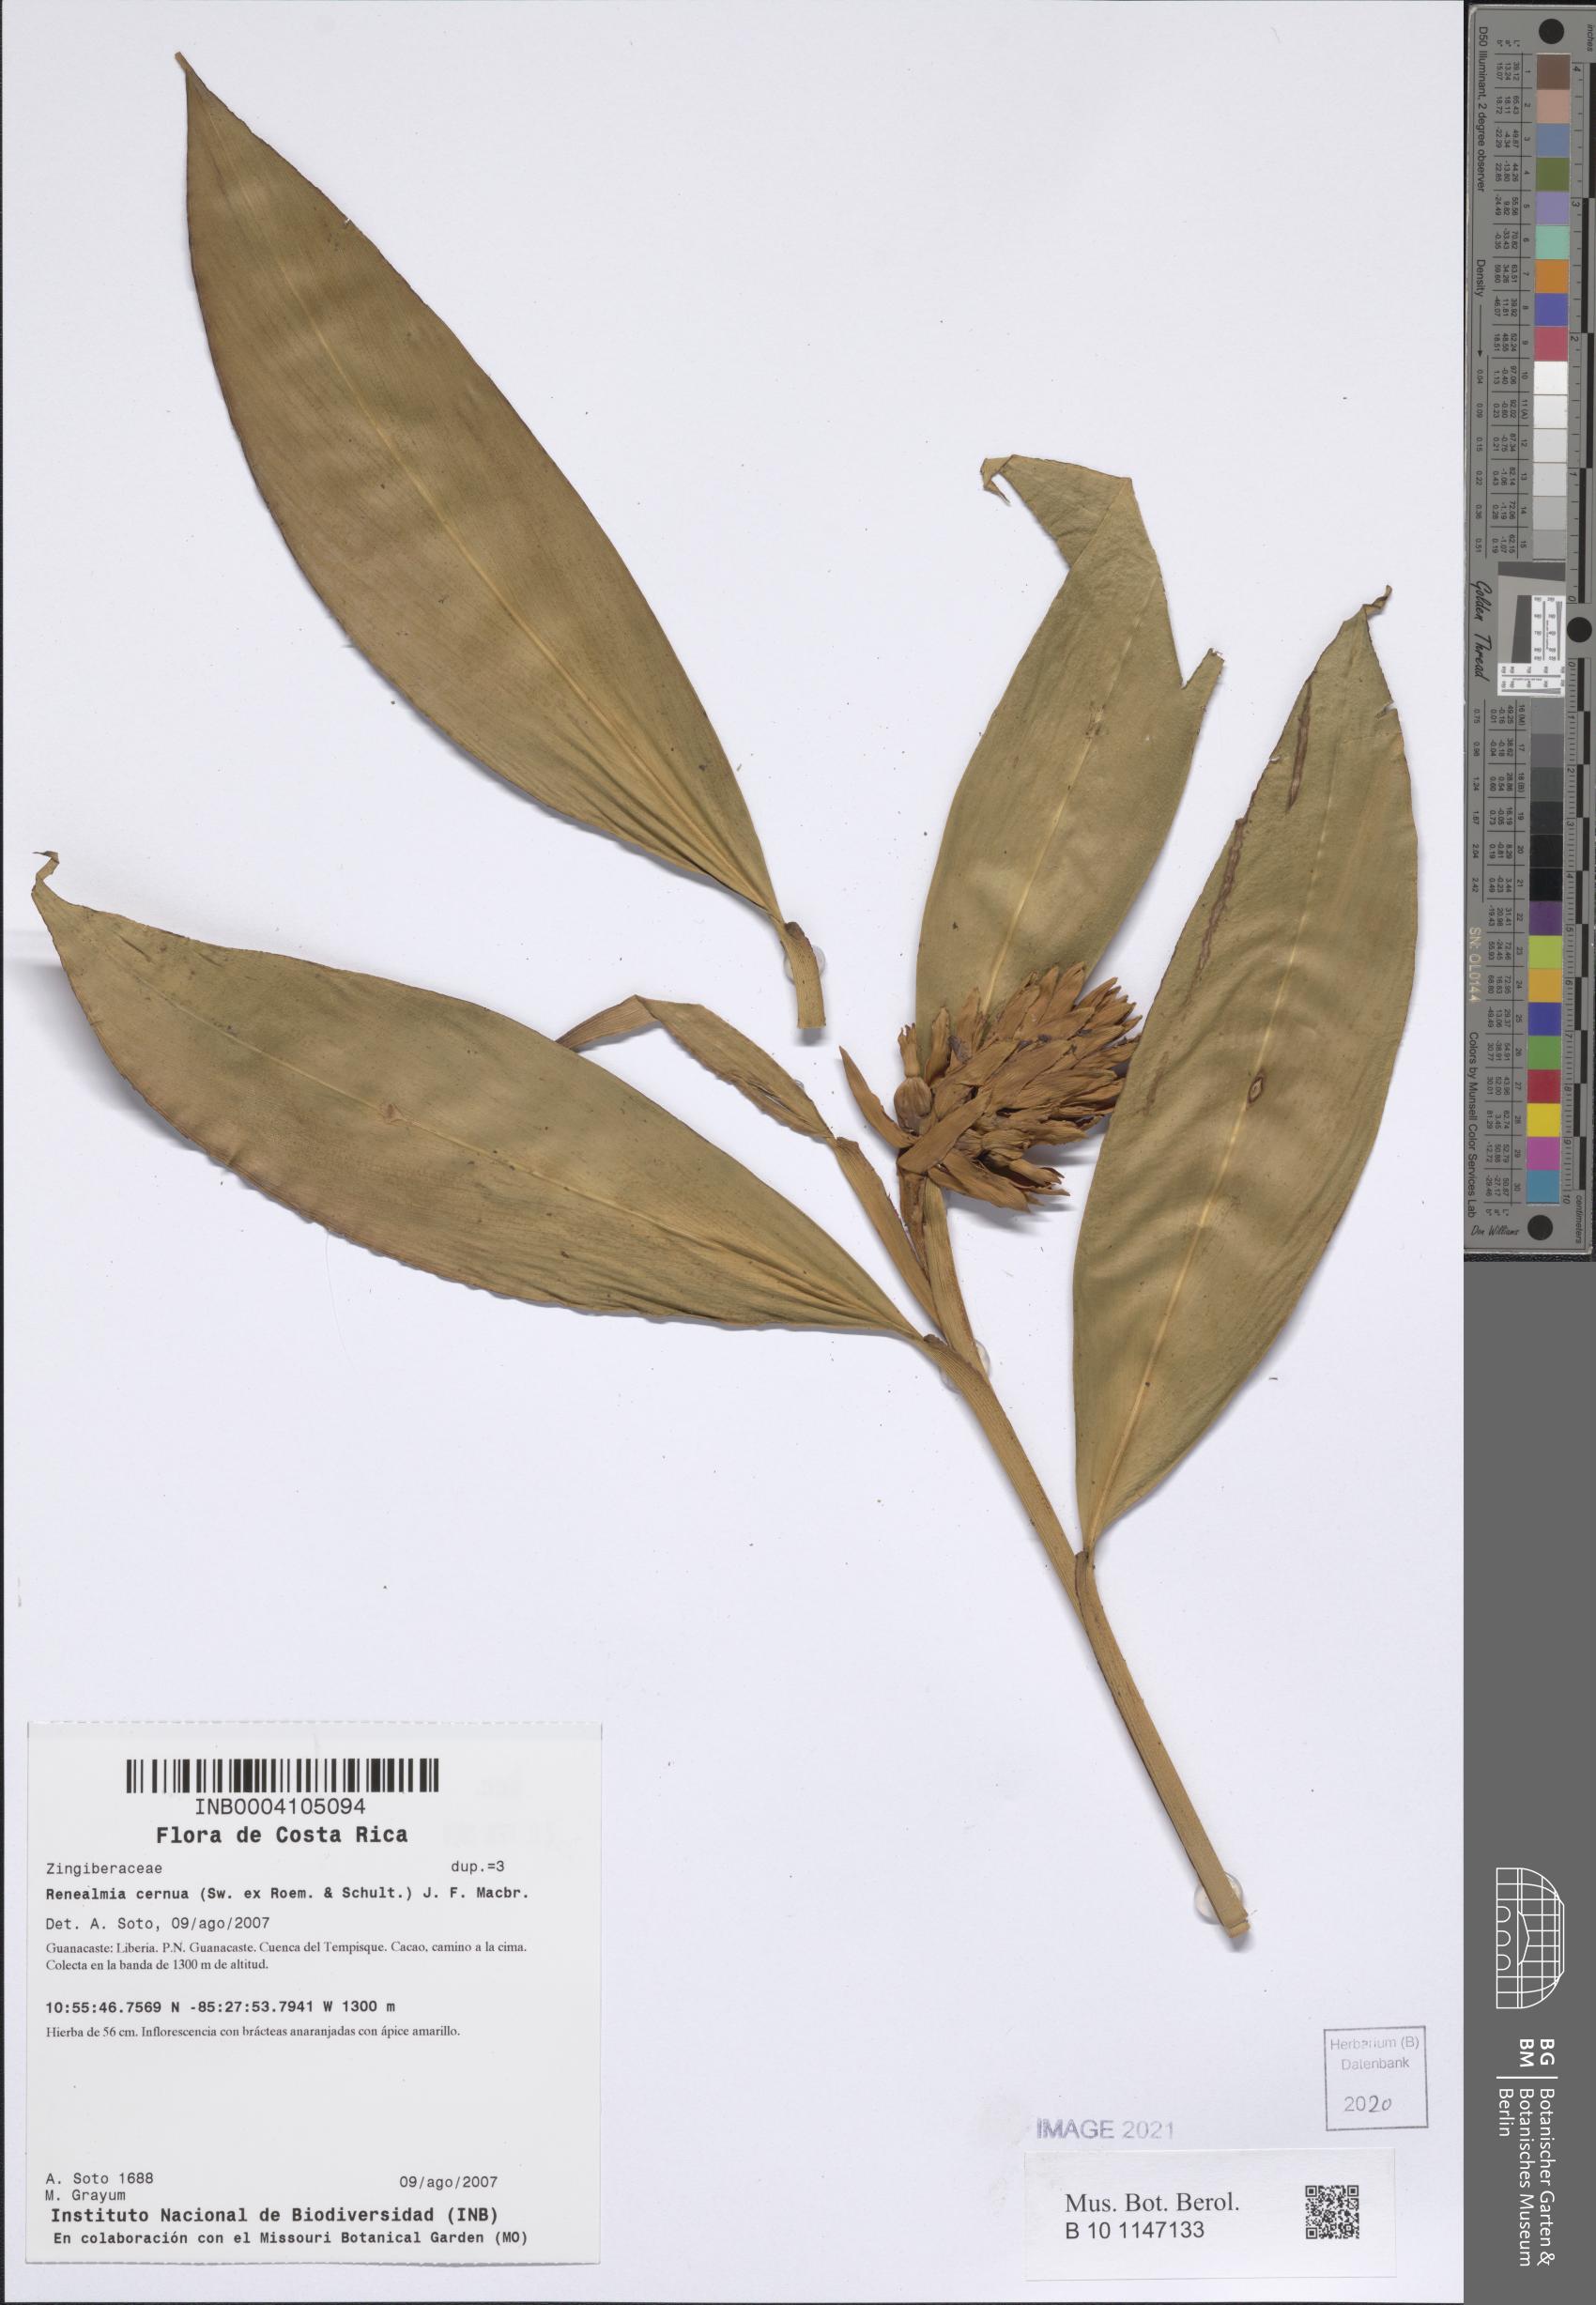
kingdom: Plantae
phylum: Tracheophyta
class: Liliopsida
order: Zingiberales
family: Zingiberaceae
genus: Renealmia
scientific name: Renealmia cernua
